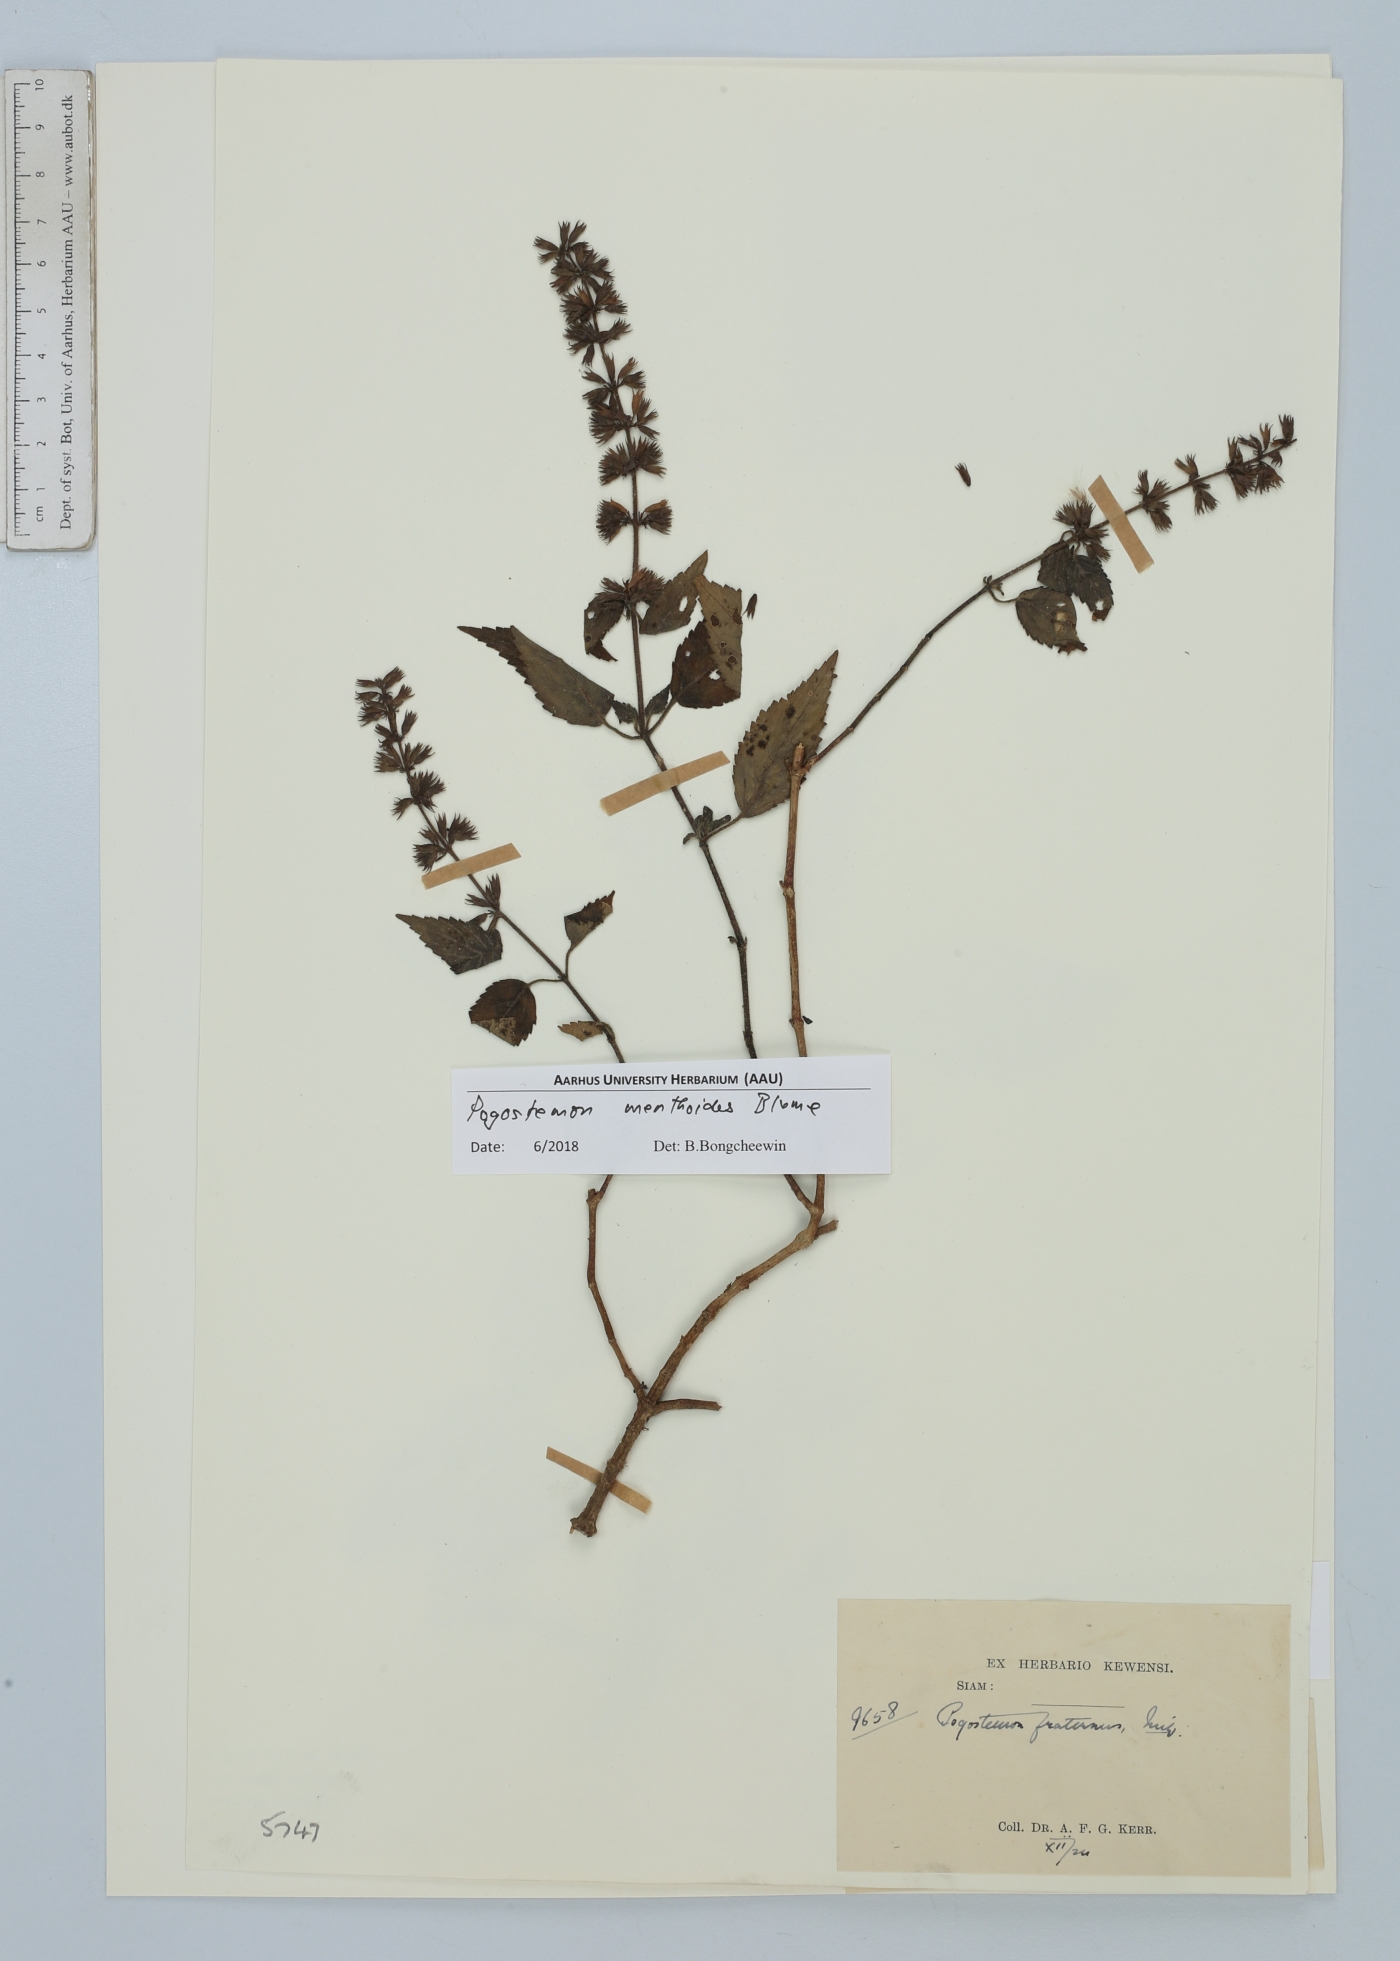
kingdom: Plantae
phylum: Tracheophyta
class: Magnoliopsida
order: Lamiales
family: Lamiaceae
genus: Pogostemon
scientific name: Pogostemon menthoides
